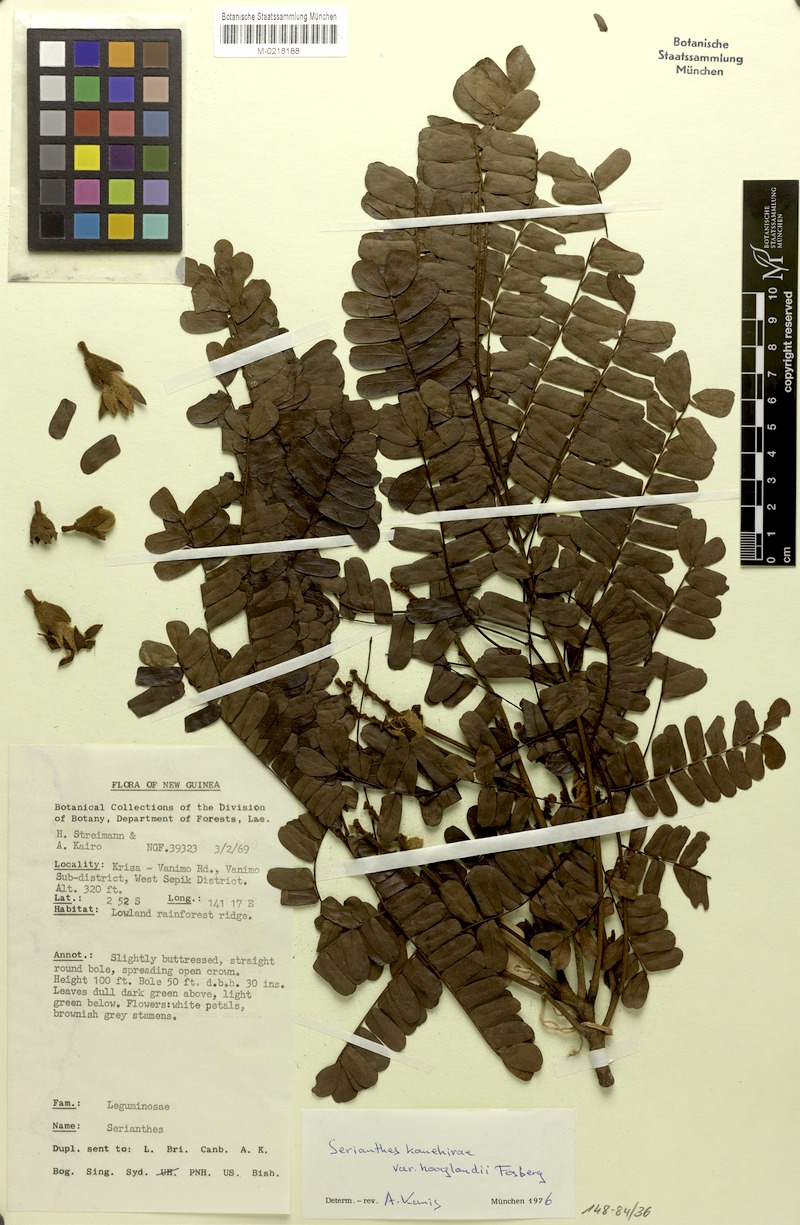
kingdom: Plantae
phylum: Tracheophyta
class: Magnoliopsida
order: Fabales
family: Fabaceae
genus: Serianthes
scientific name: Serianthes hooglandii
